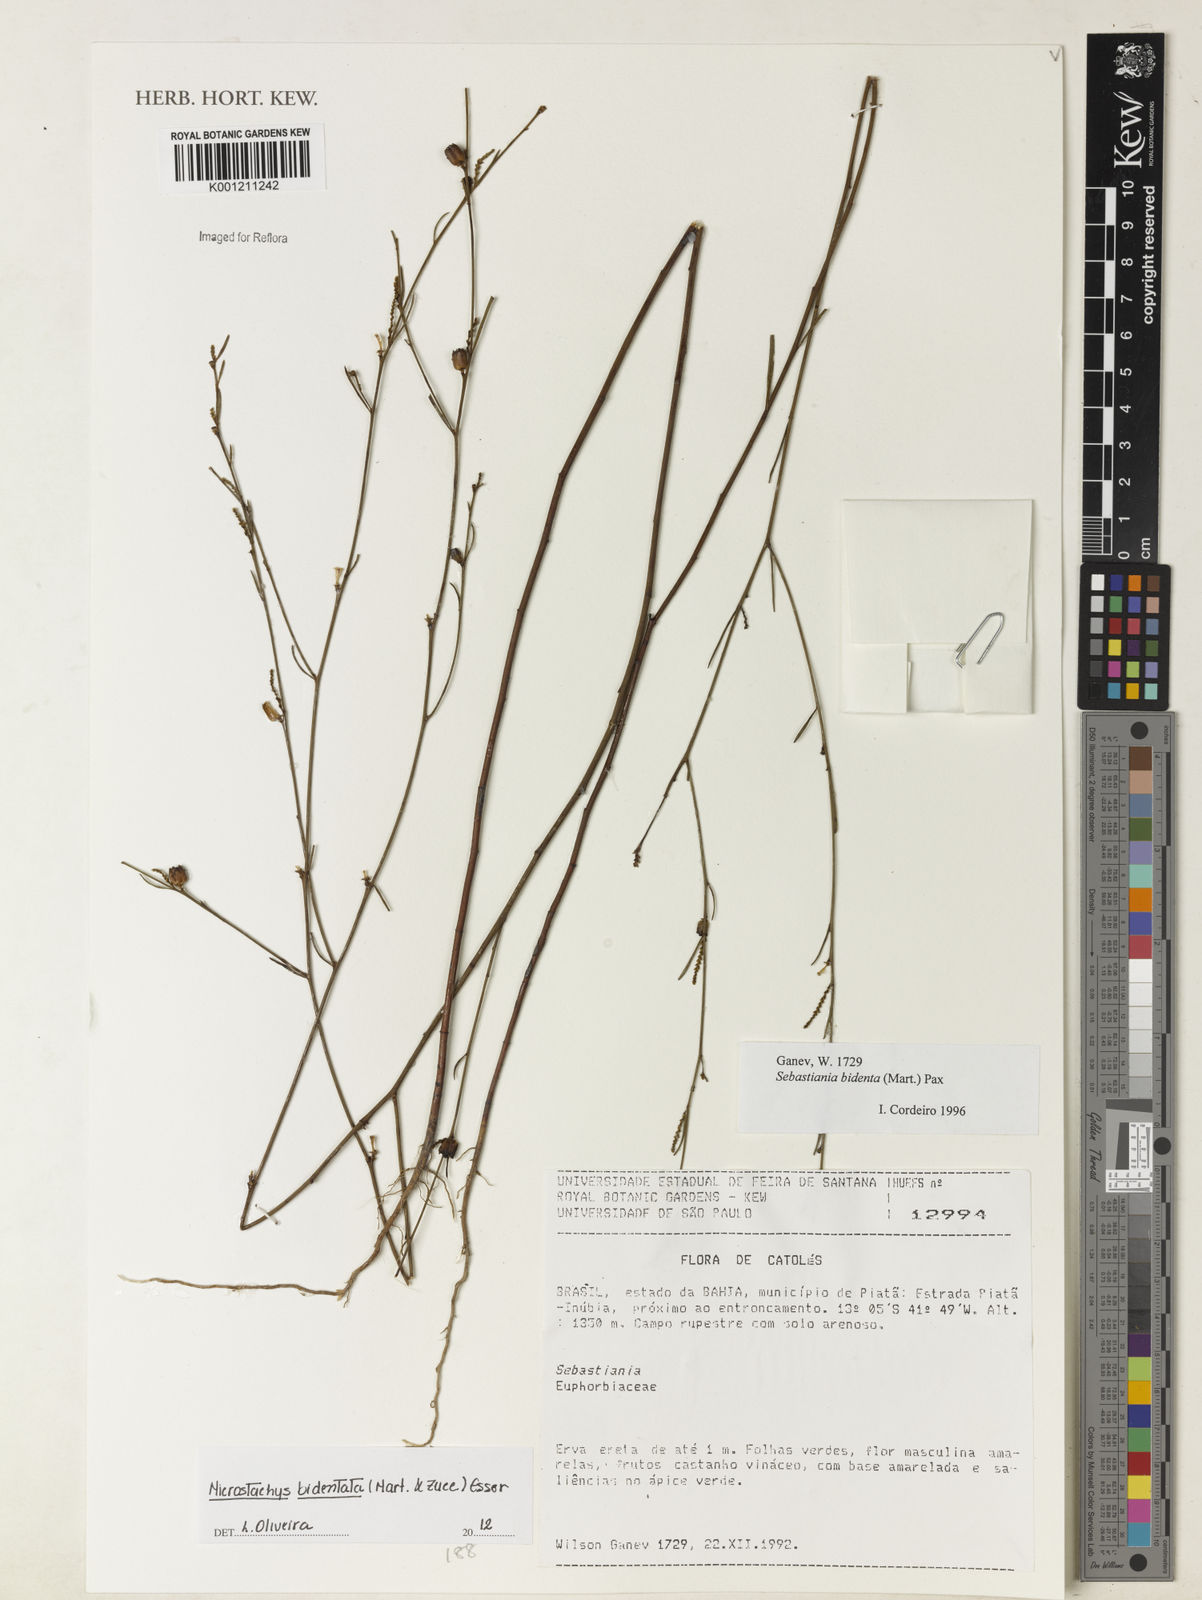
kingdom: Plantae
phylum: Tracheophyta
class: Magnoliopsida
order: Malpighiales
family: Euphorbiaceae
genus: Microstachys
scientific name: Microstachys bidentata
